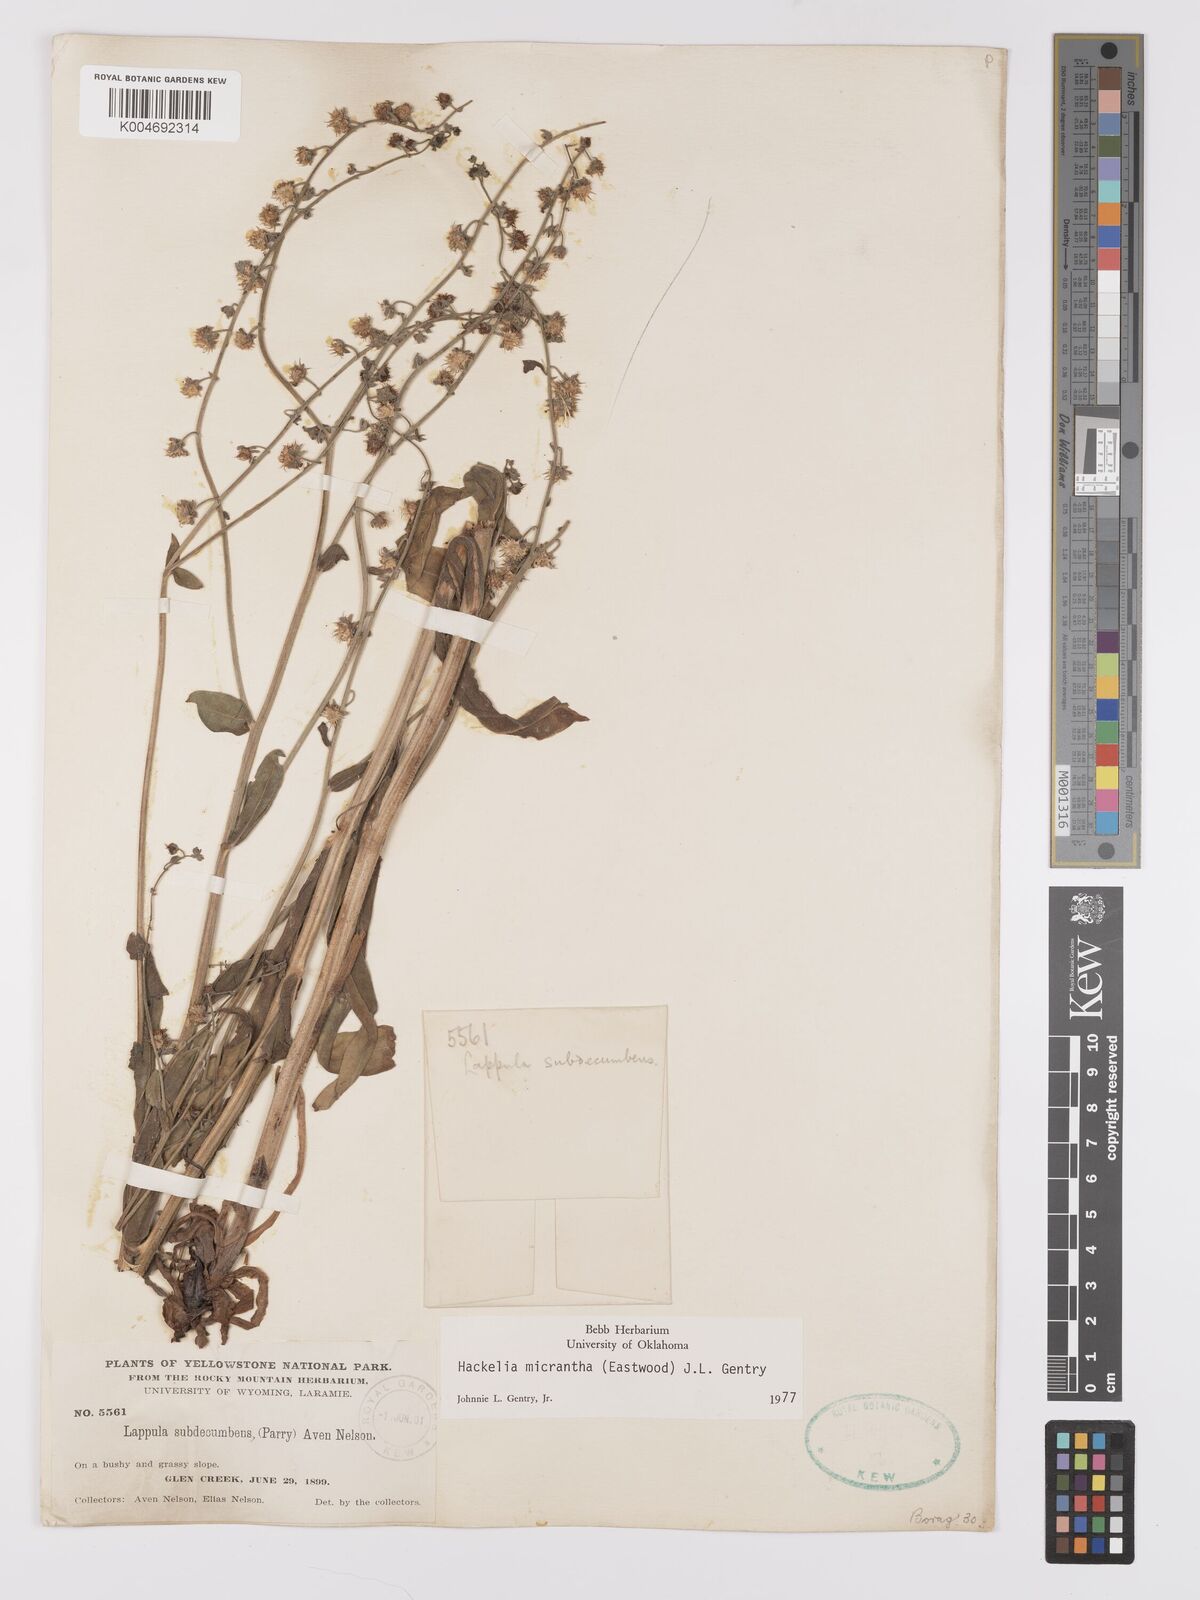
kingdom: Plantae
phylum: Tracheophyta
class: Magnoliopsida
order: Boraginales
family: Boraginaceae
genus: Hackelia
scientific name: Hackelia diffusa
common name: Spreading hackelia
